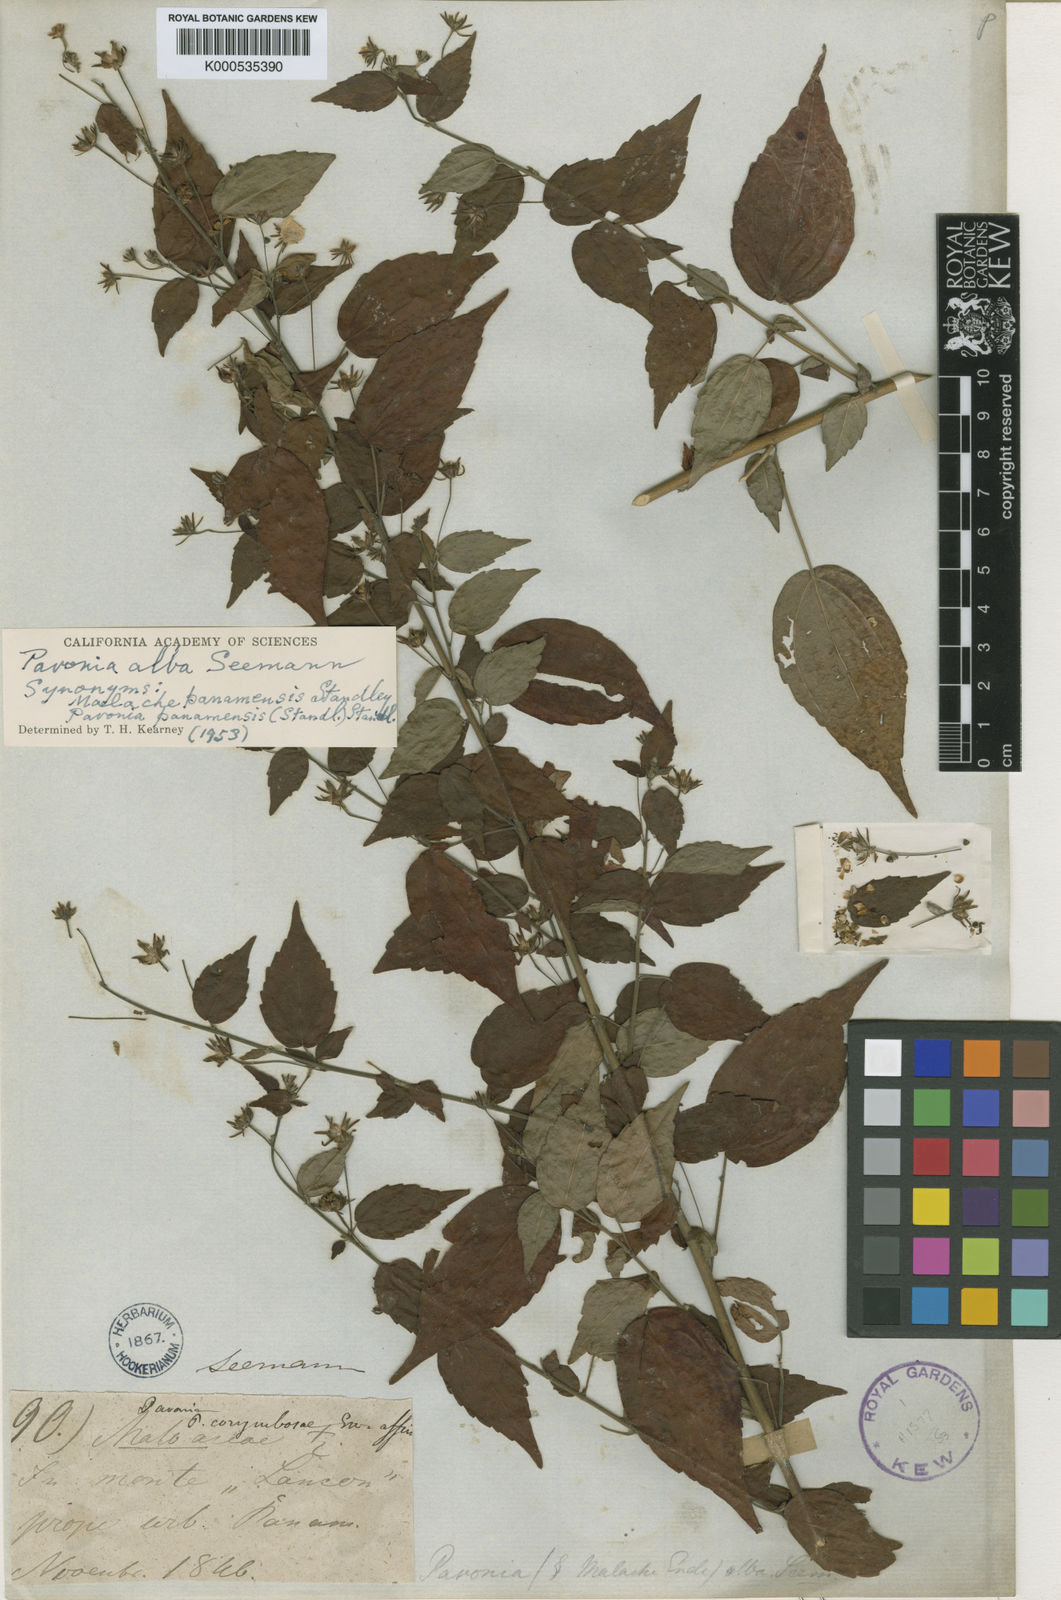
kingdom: Plantae
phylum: Tracheophyta
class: Magnoliopsida
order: Malvales
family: Malvaceae
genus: Pavonia
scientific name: Pavonia alba
